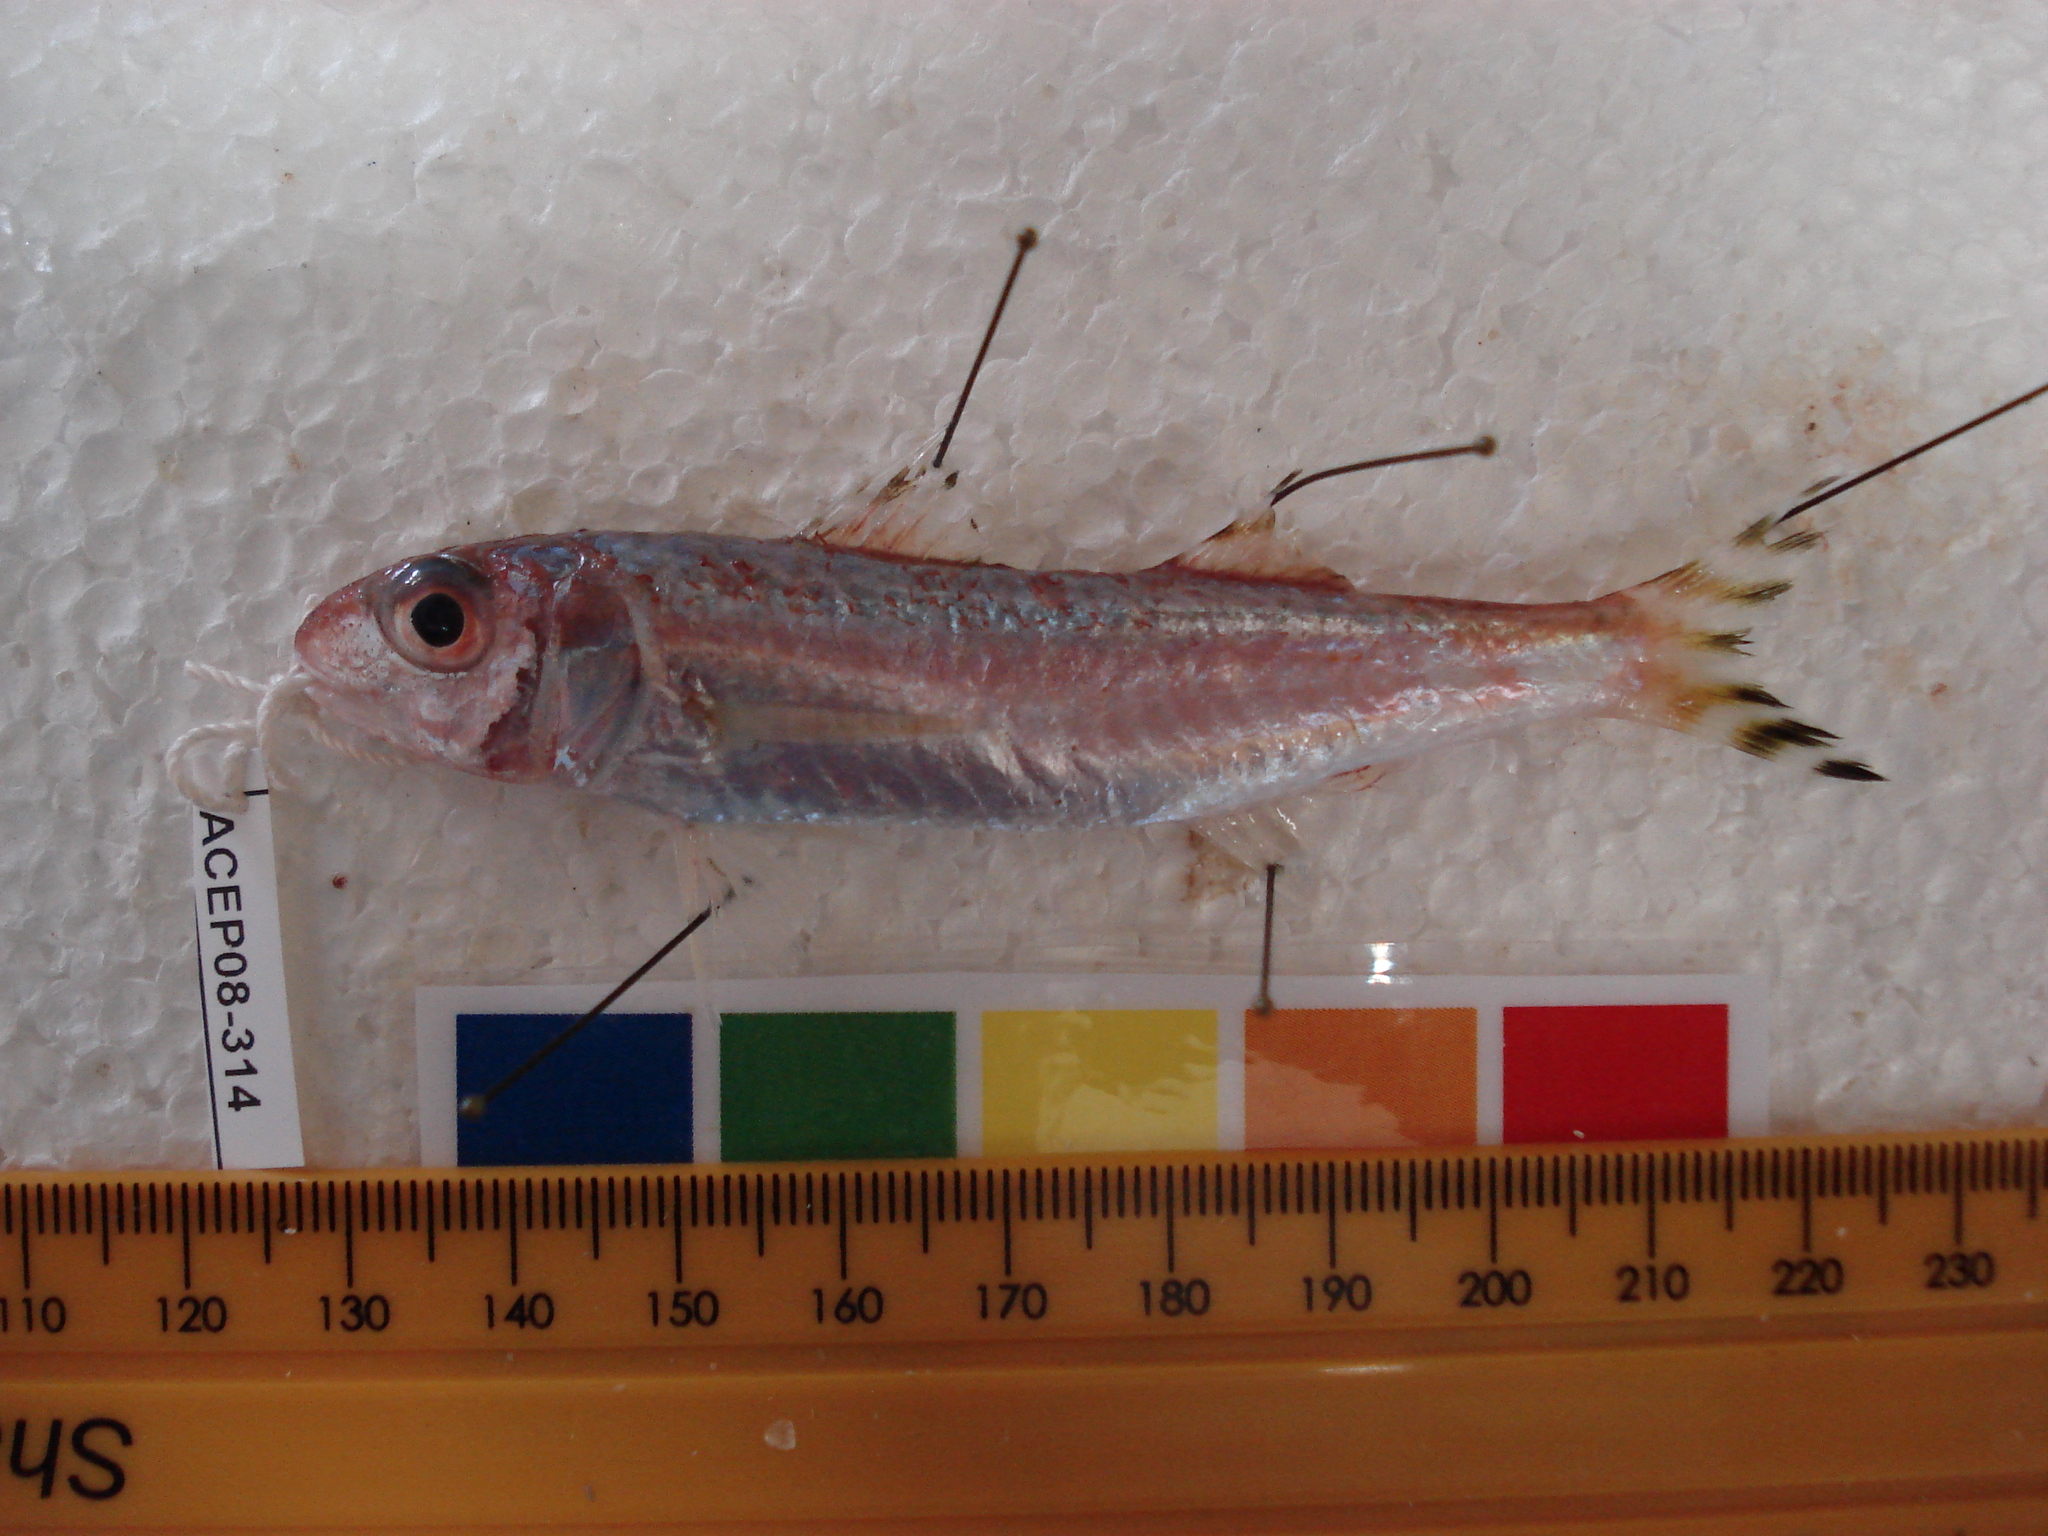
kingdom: Animalia
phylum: Chordata
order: Perciformes
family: Mullidae
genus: Upeneus
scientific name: Upeneus mascareinsis
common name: Mascarene goatfish
